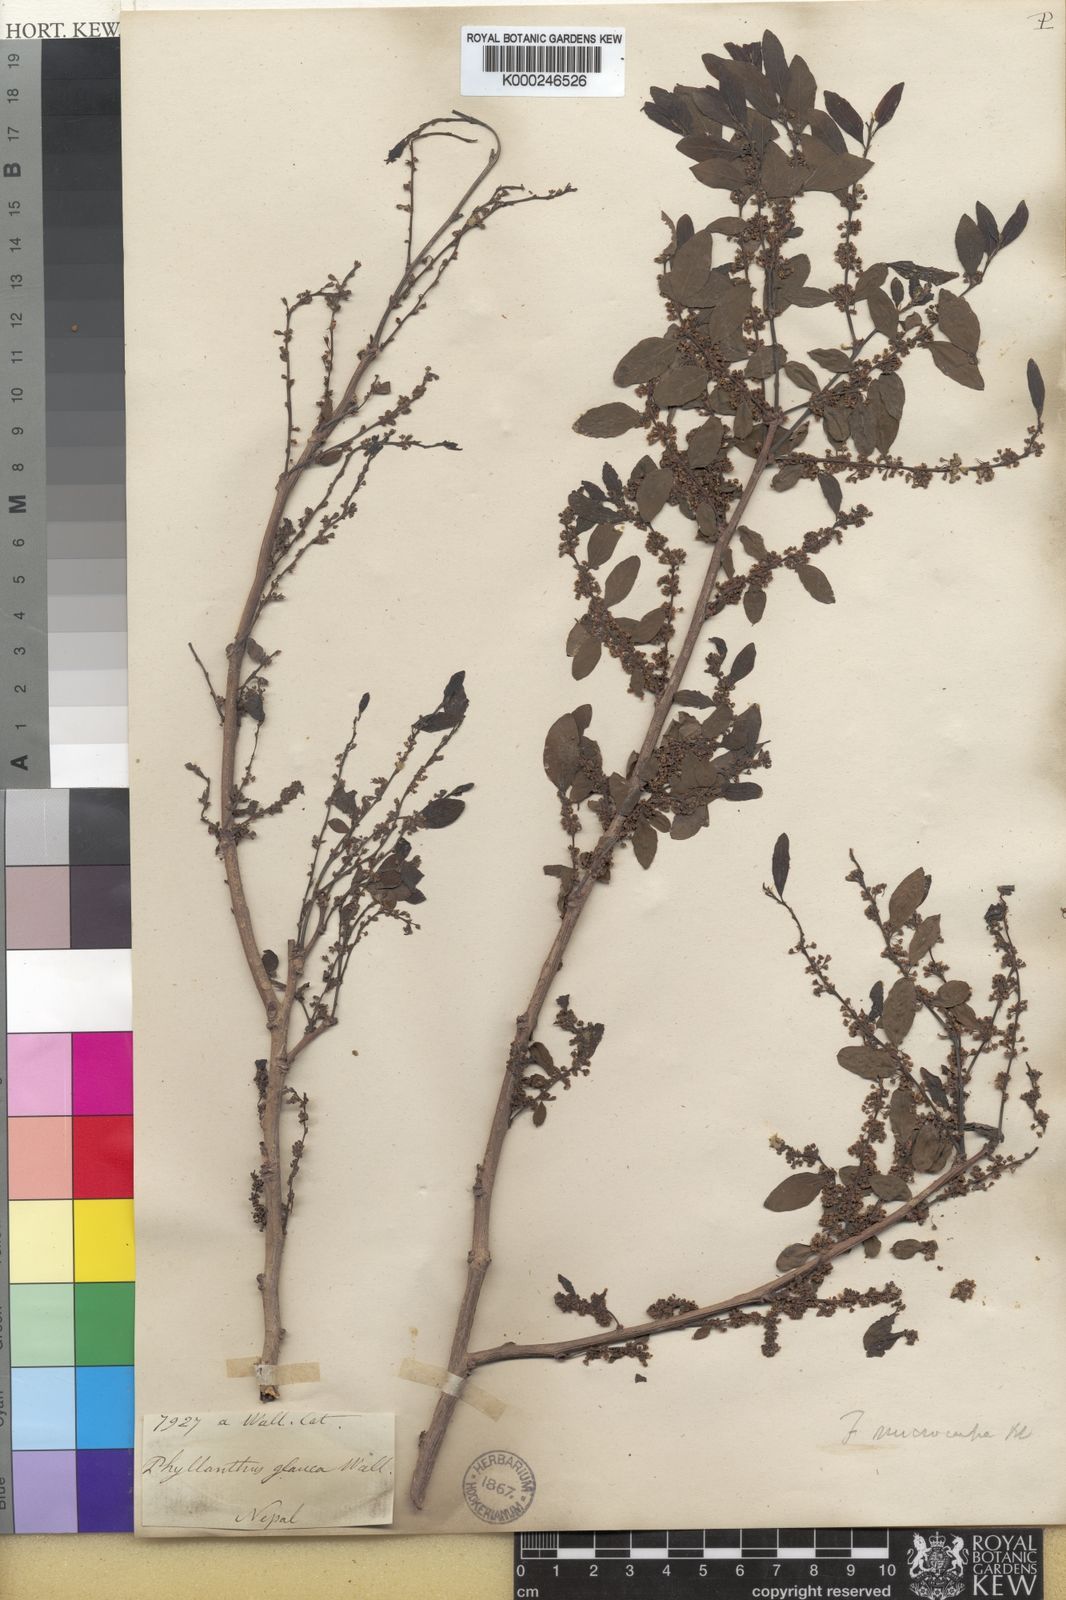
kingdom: Plantae
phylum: Tracheophyta
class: Magnoliopsida
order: Malpighiales
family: Phyllanthaceae
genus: Flueggea
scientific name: Flueggea virosa
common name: Common bushweed
